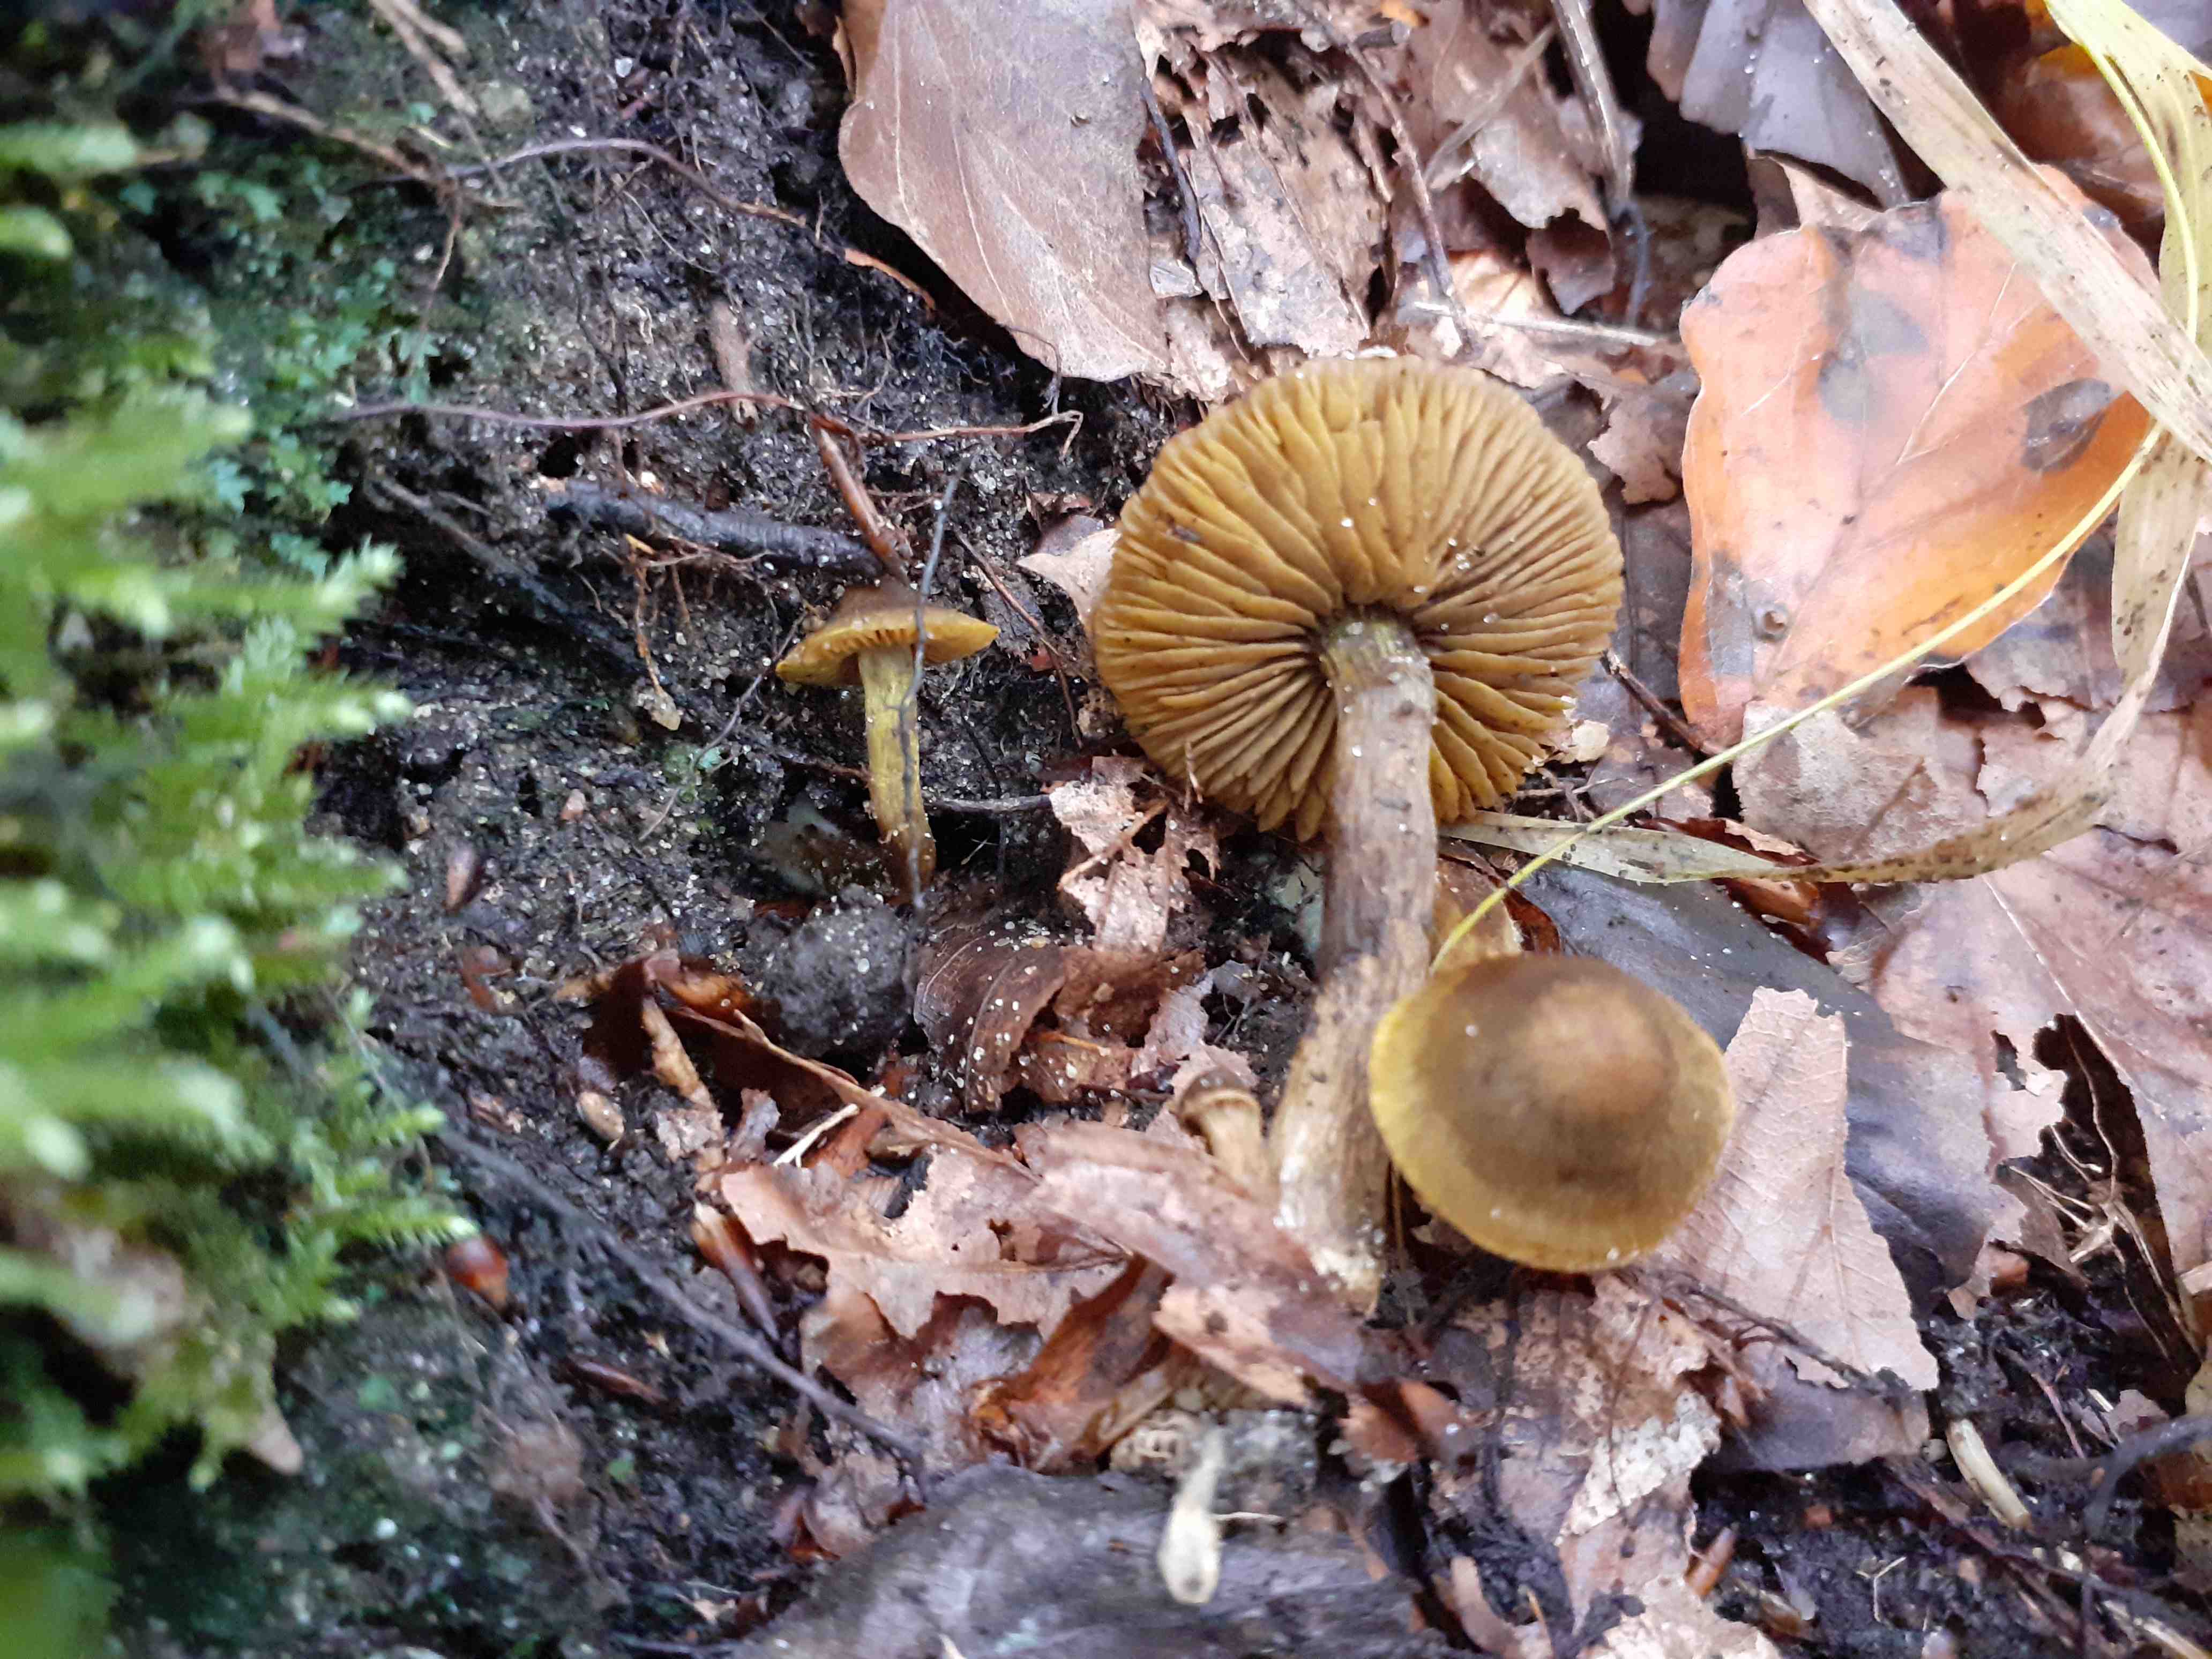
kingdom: Fungi
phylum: Basidiomycota
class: Agaricomycetes
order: Agaricales
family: Cortinariaceae
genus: Cortinarius
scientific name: Cortinarius olivaceofuscus
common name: olivenbrun slørhat
